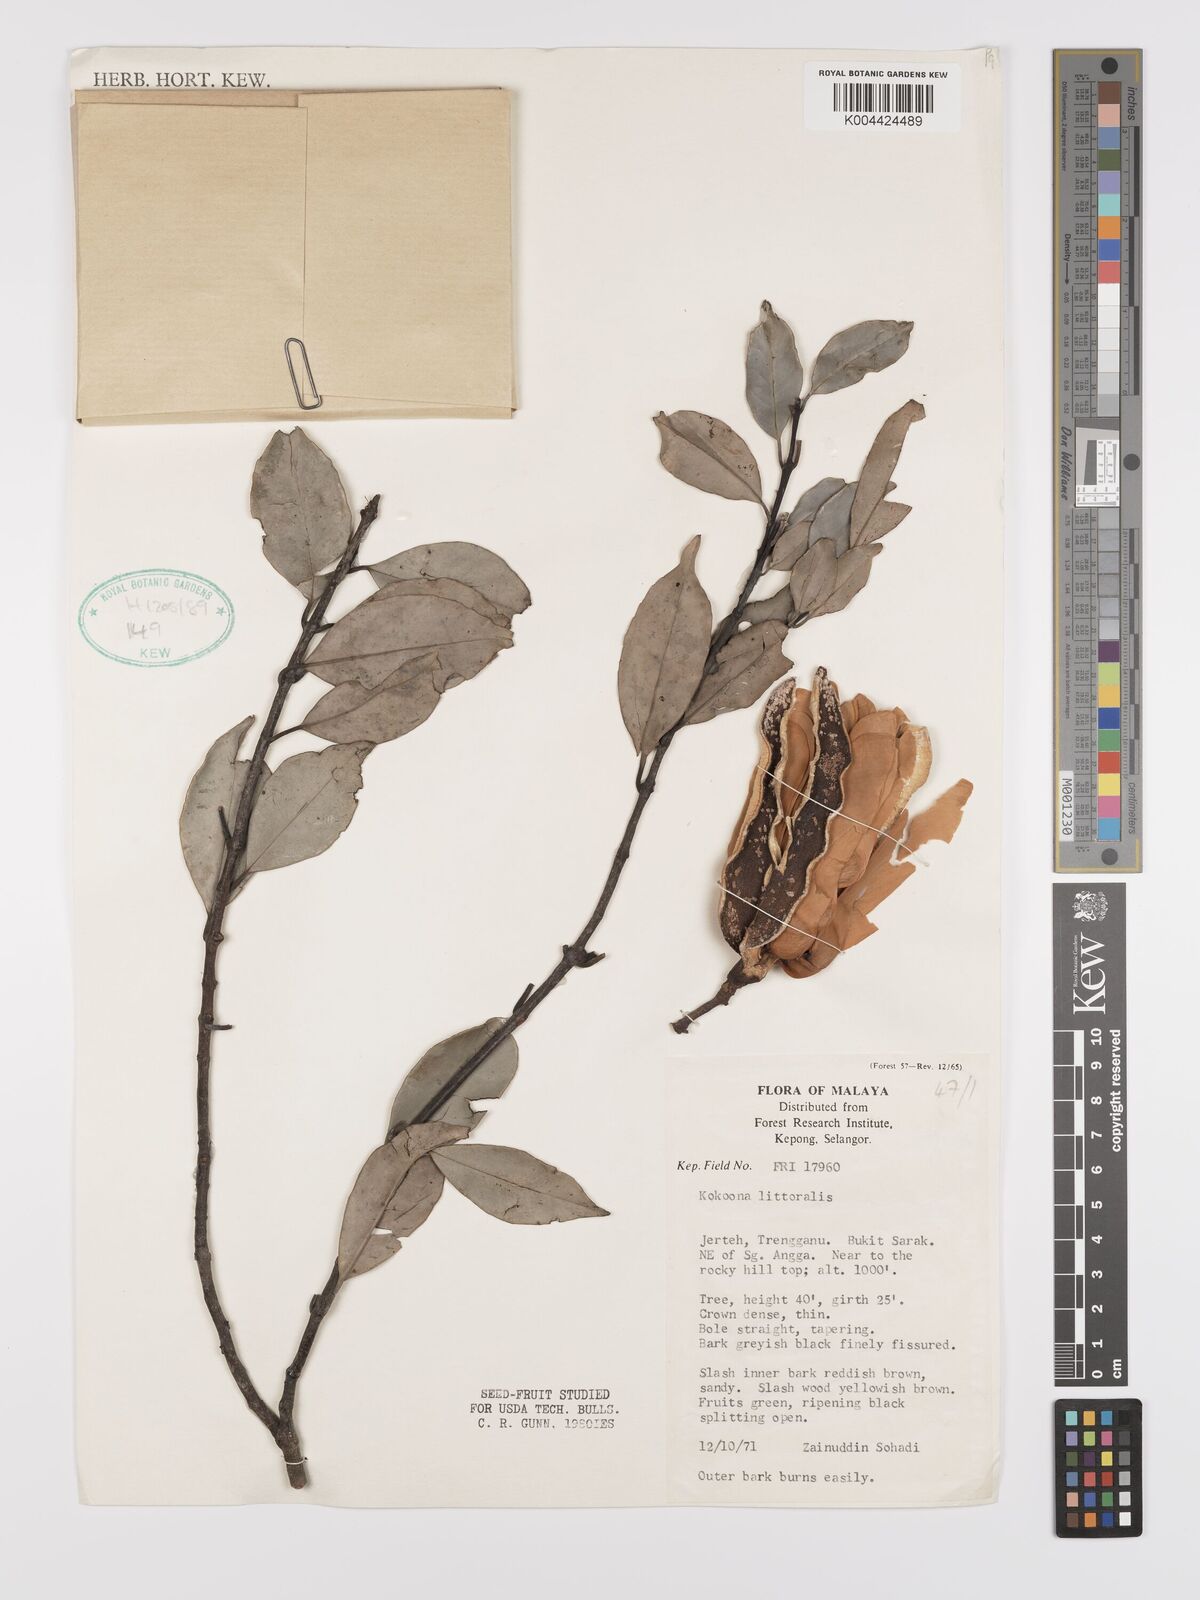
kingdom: Plantae
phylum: Tracheophyta
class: Magnoliopsida
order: Celastrales
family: Celastraceae
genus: Kokoona
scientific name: Kokoona littoralis
